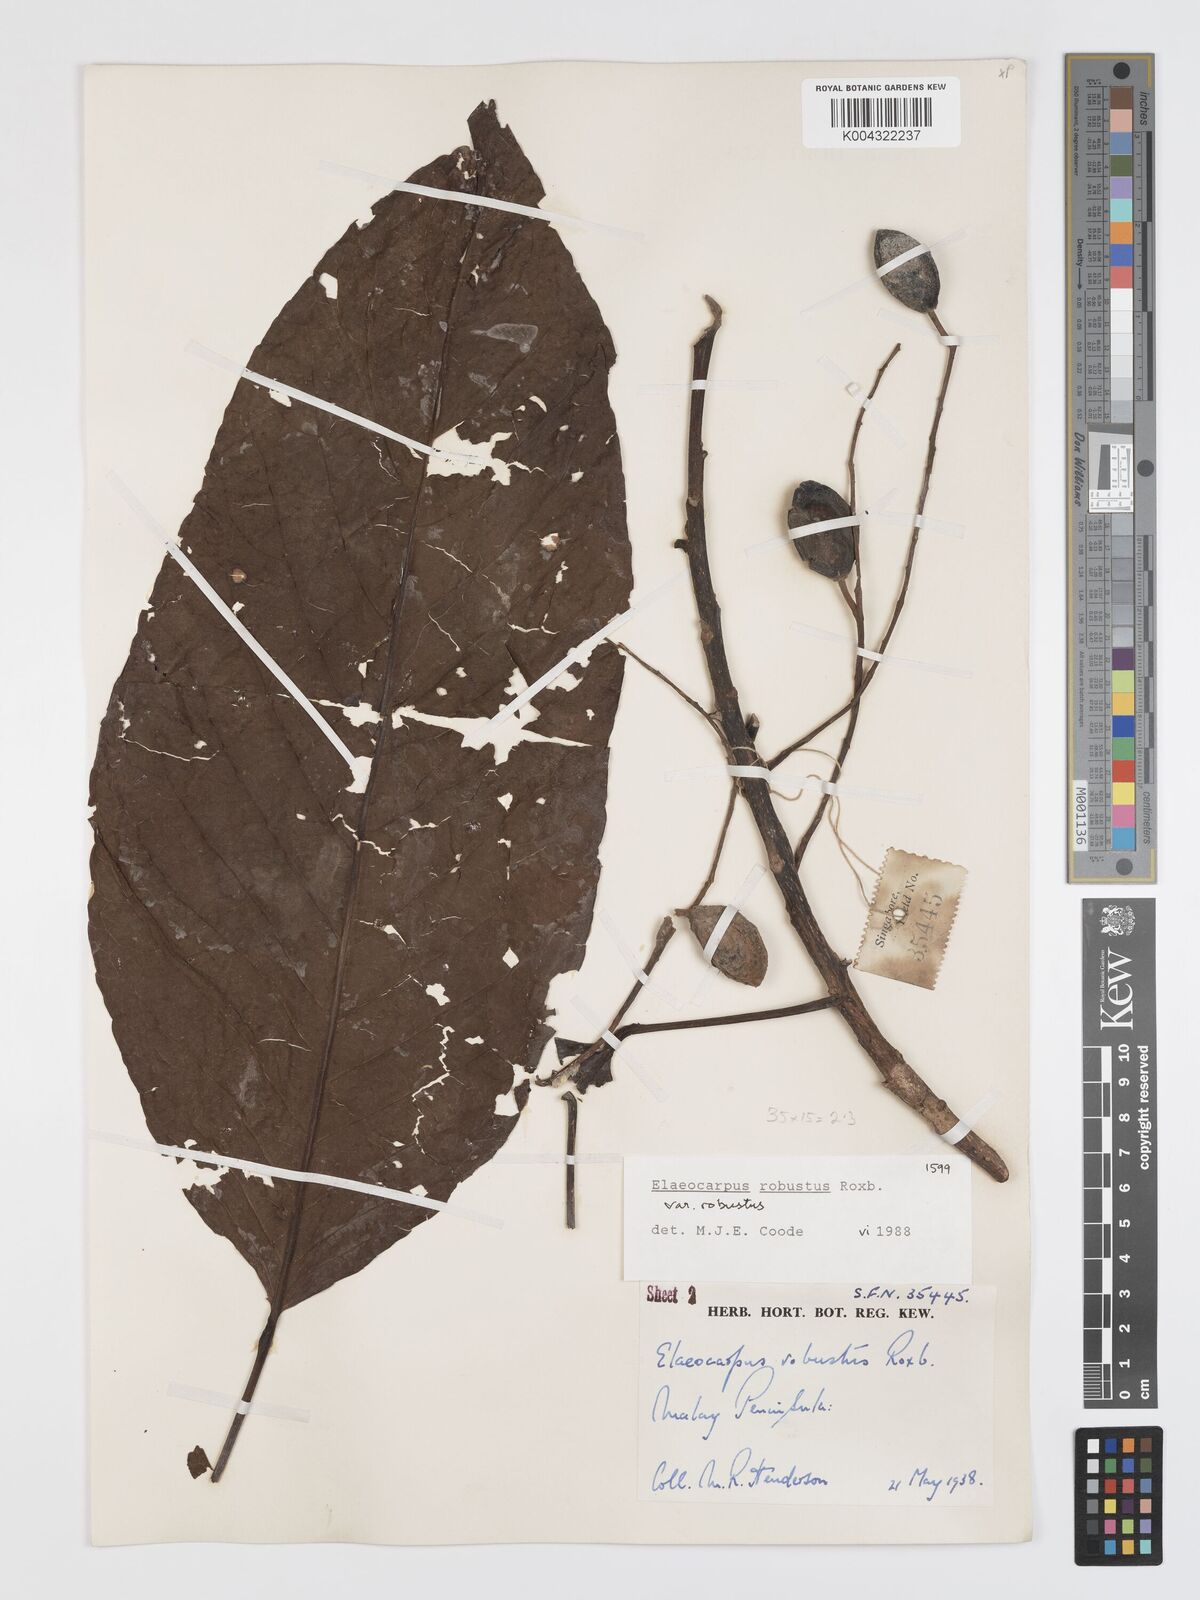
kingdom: Plantae
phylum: Tracheophyta
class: Magnoliopsida
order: Oxalidales
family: Elaeocarpaceae
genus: Elaeocarpus
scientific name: Elaeocarpus robustus
